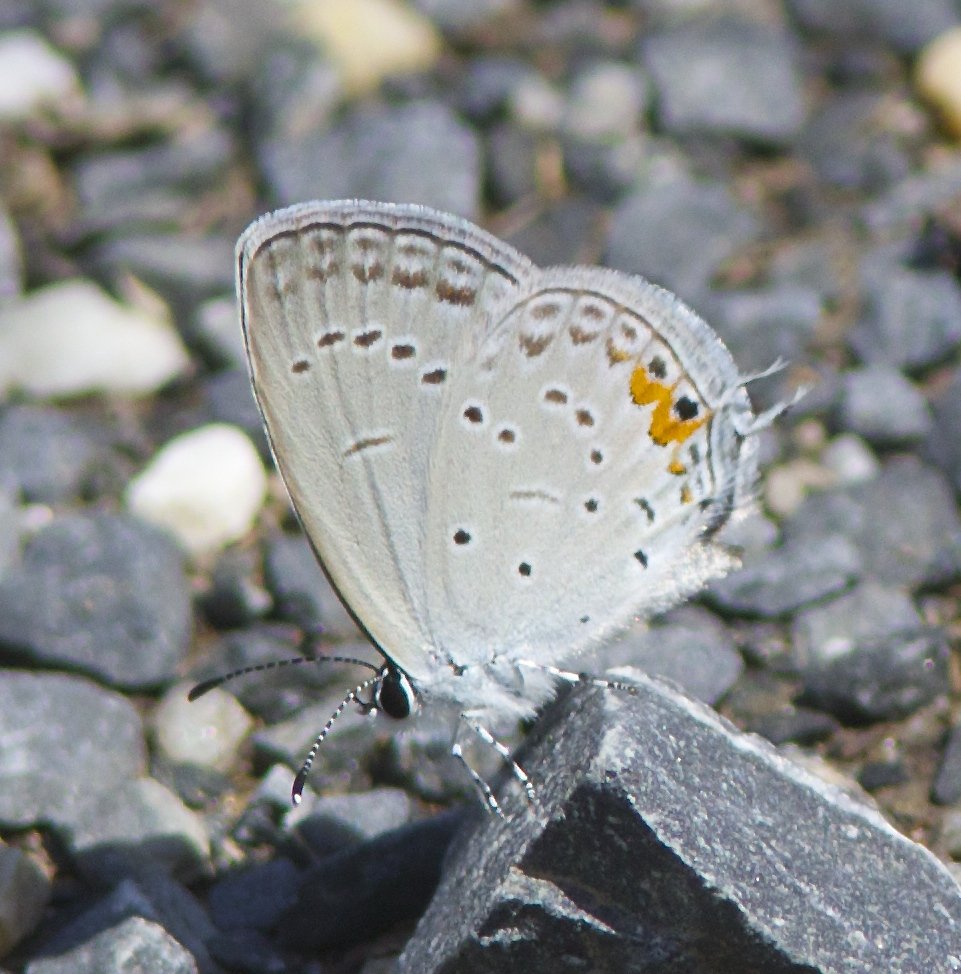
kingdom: Animalia
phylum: Arthropoda
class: Insecta
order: Lepidoptera
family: Lycaenidae
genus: Elkalyce
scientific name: Elkalyce comyntas
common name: Eastern Tailed-Blue
